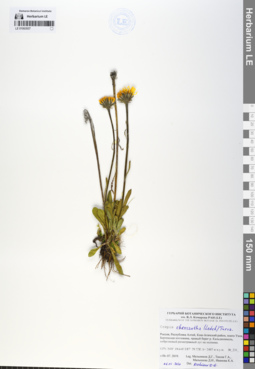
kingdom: Plantae
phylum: Tracheophyta
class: Magnoliopsida
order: Asterales
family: Asteraceae
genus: Crepis
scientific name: Crepis chrysantha
